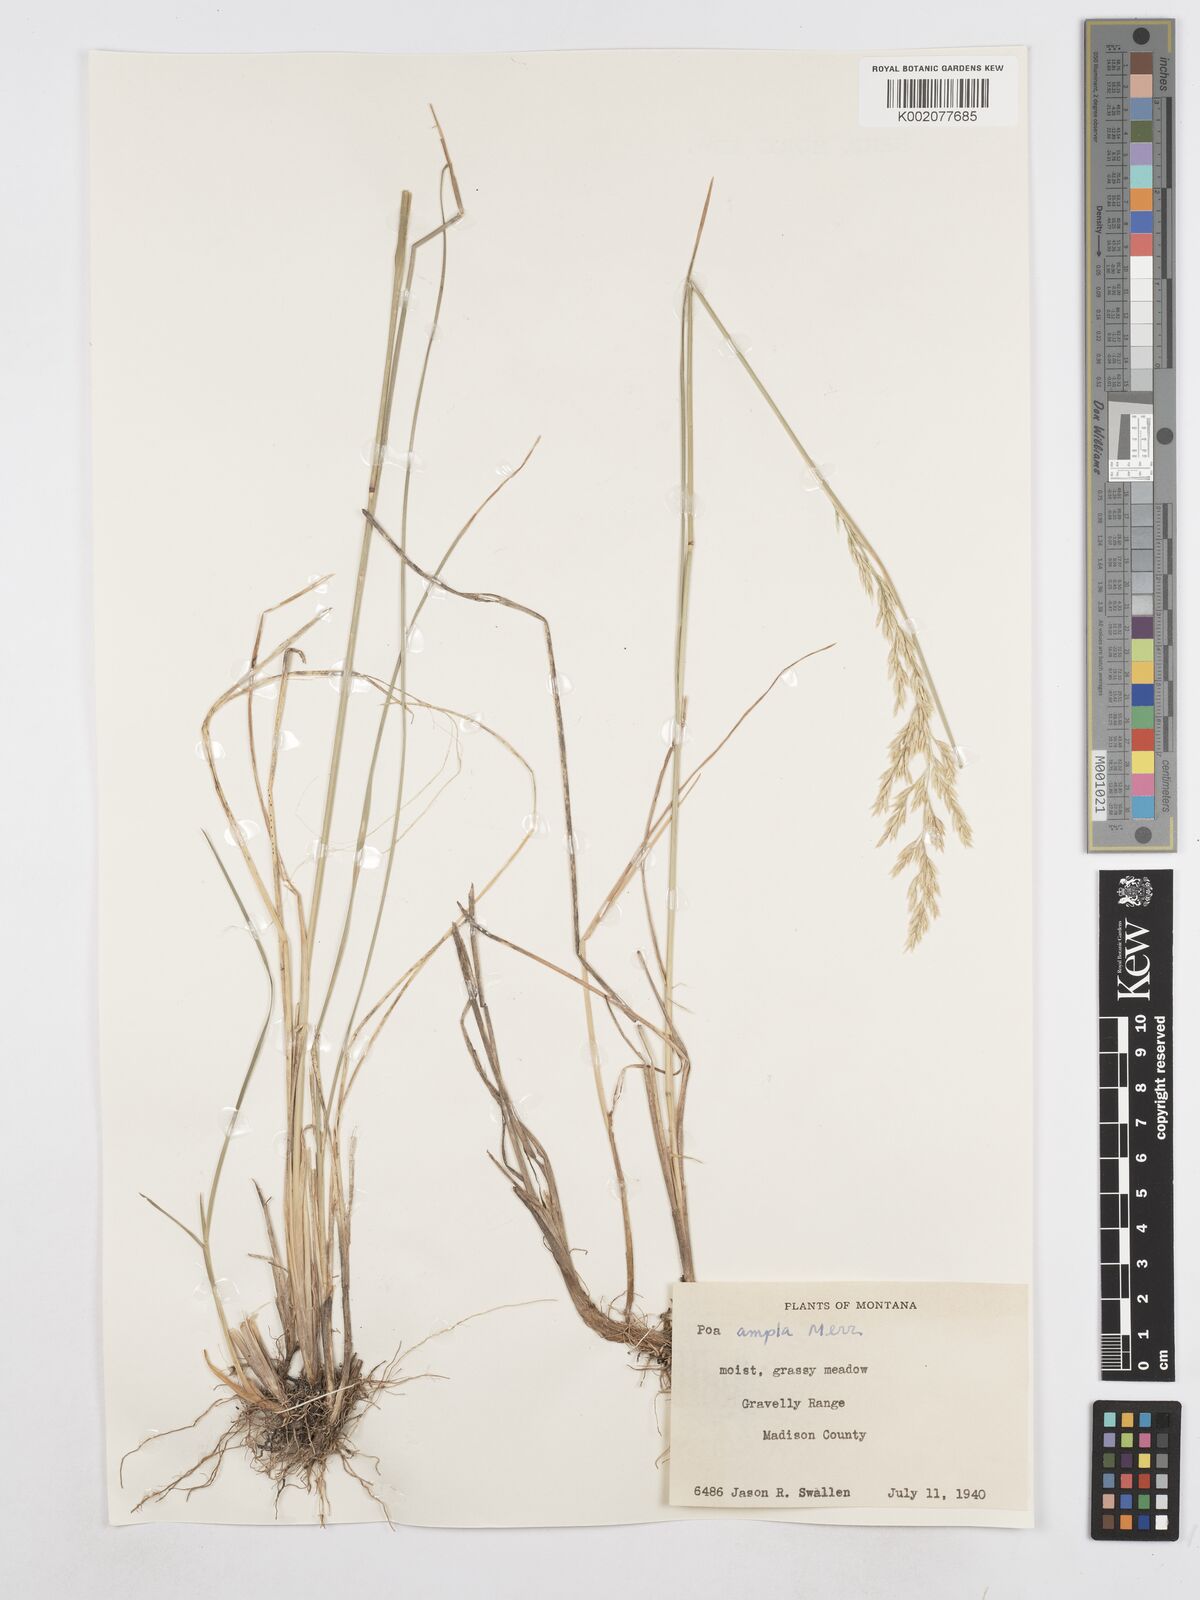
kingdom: Plantae
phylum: Tracheophyta
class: Liliopsida
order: Poales
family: Poaceae
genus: Poa
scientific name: Poa secunda
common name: Sandberg bluegrass
